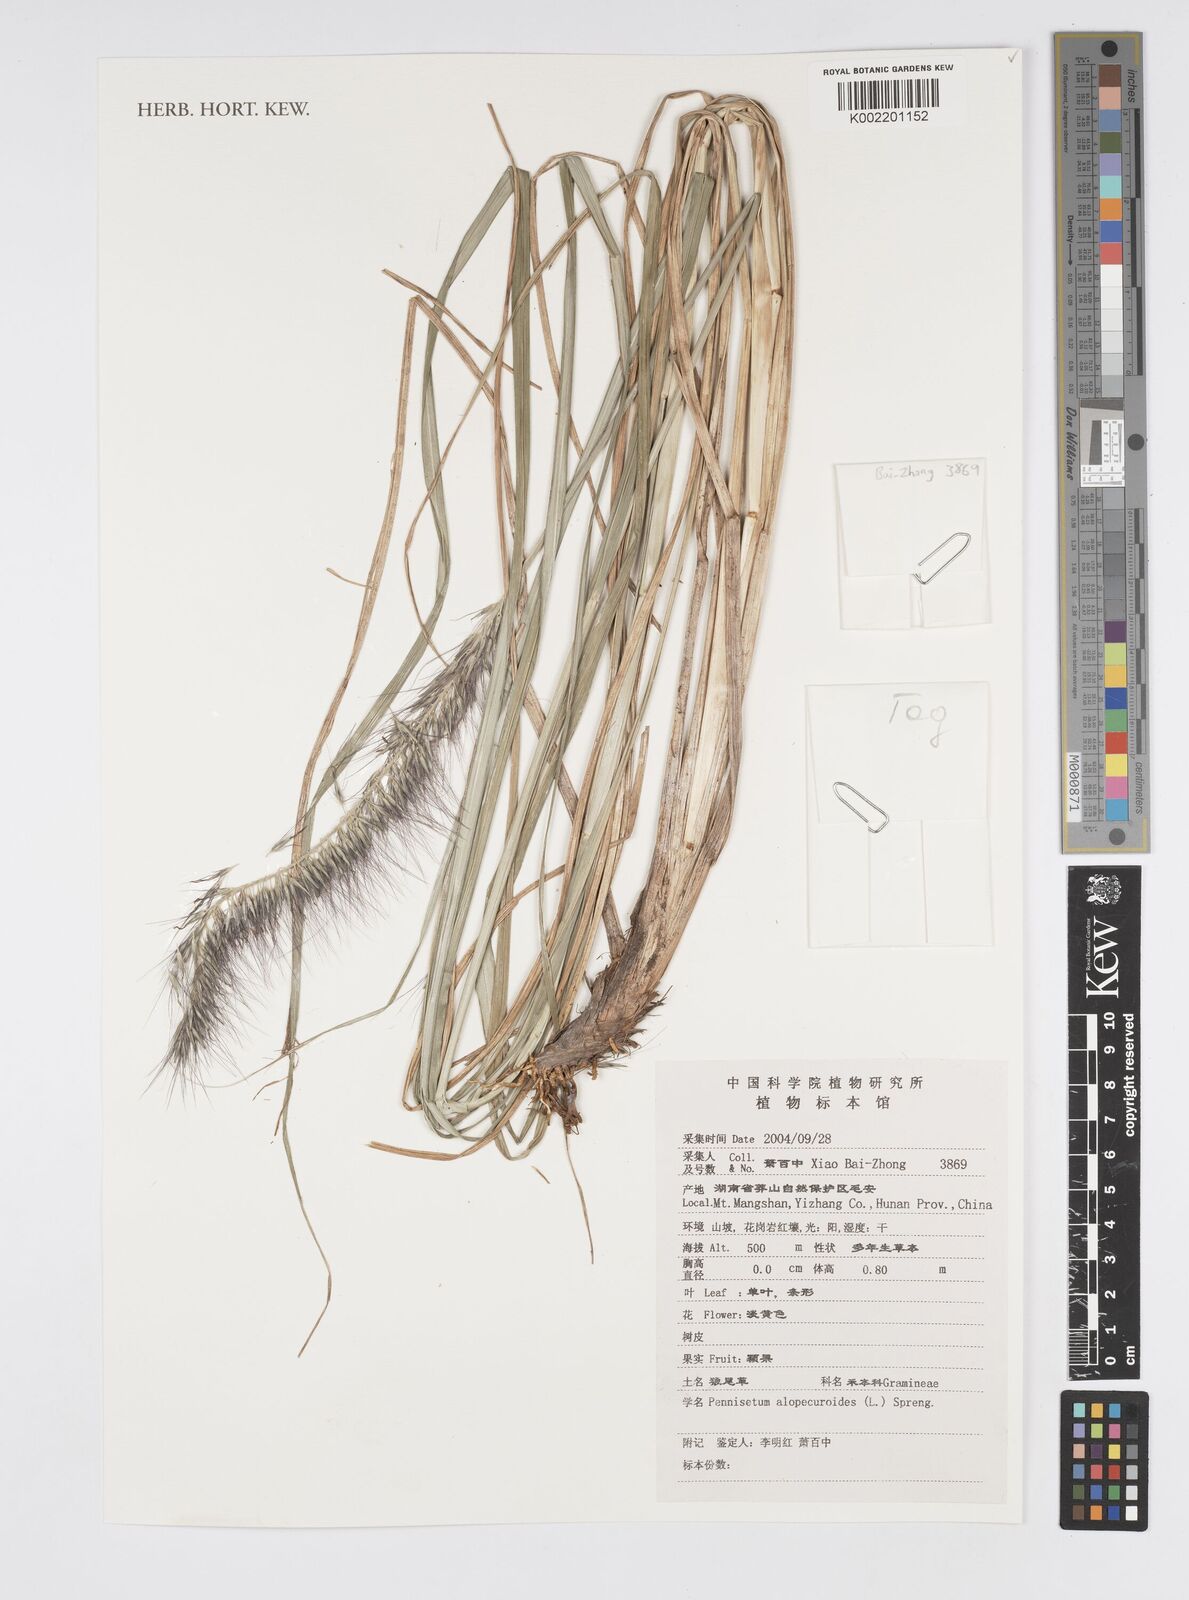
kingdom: Plantae
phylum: Tracheophyta
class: Liliopsida
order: Poales
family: Poaceae
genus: Cenchrus
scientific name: Cenchrus alopecuroides
